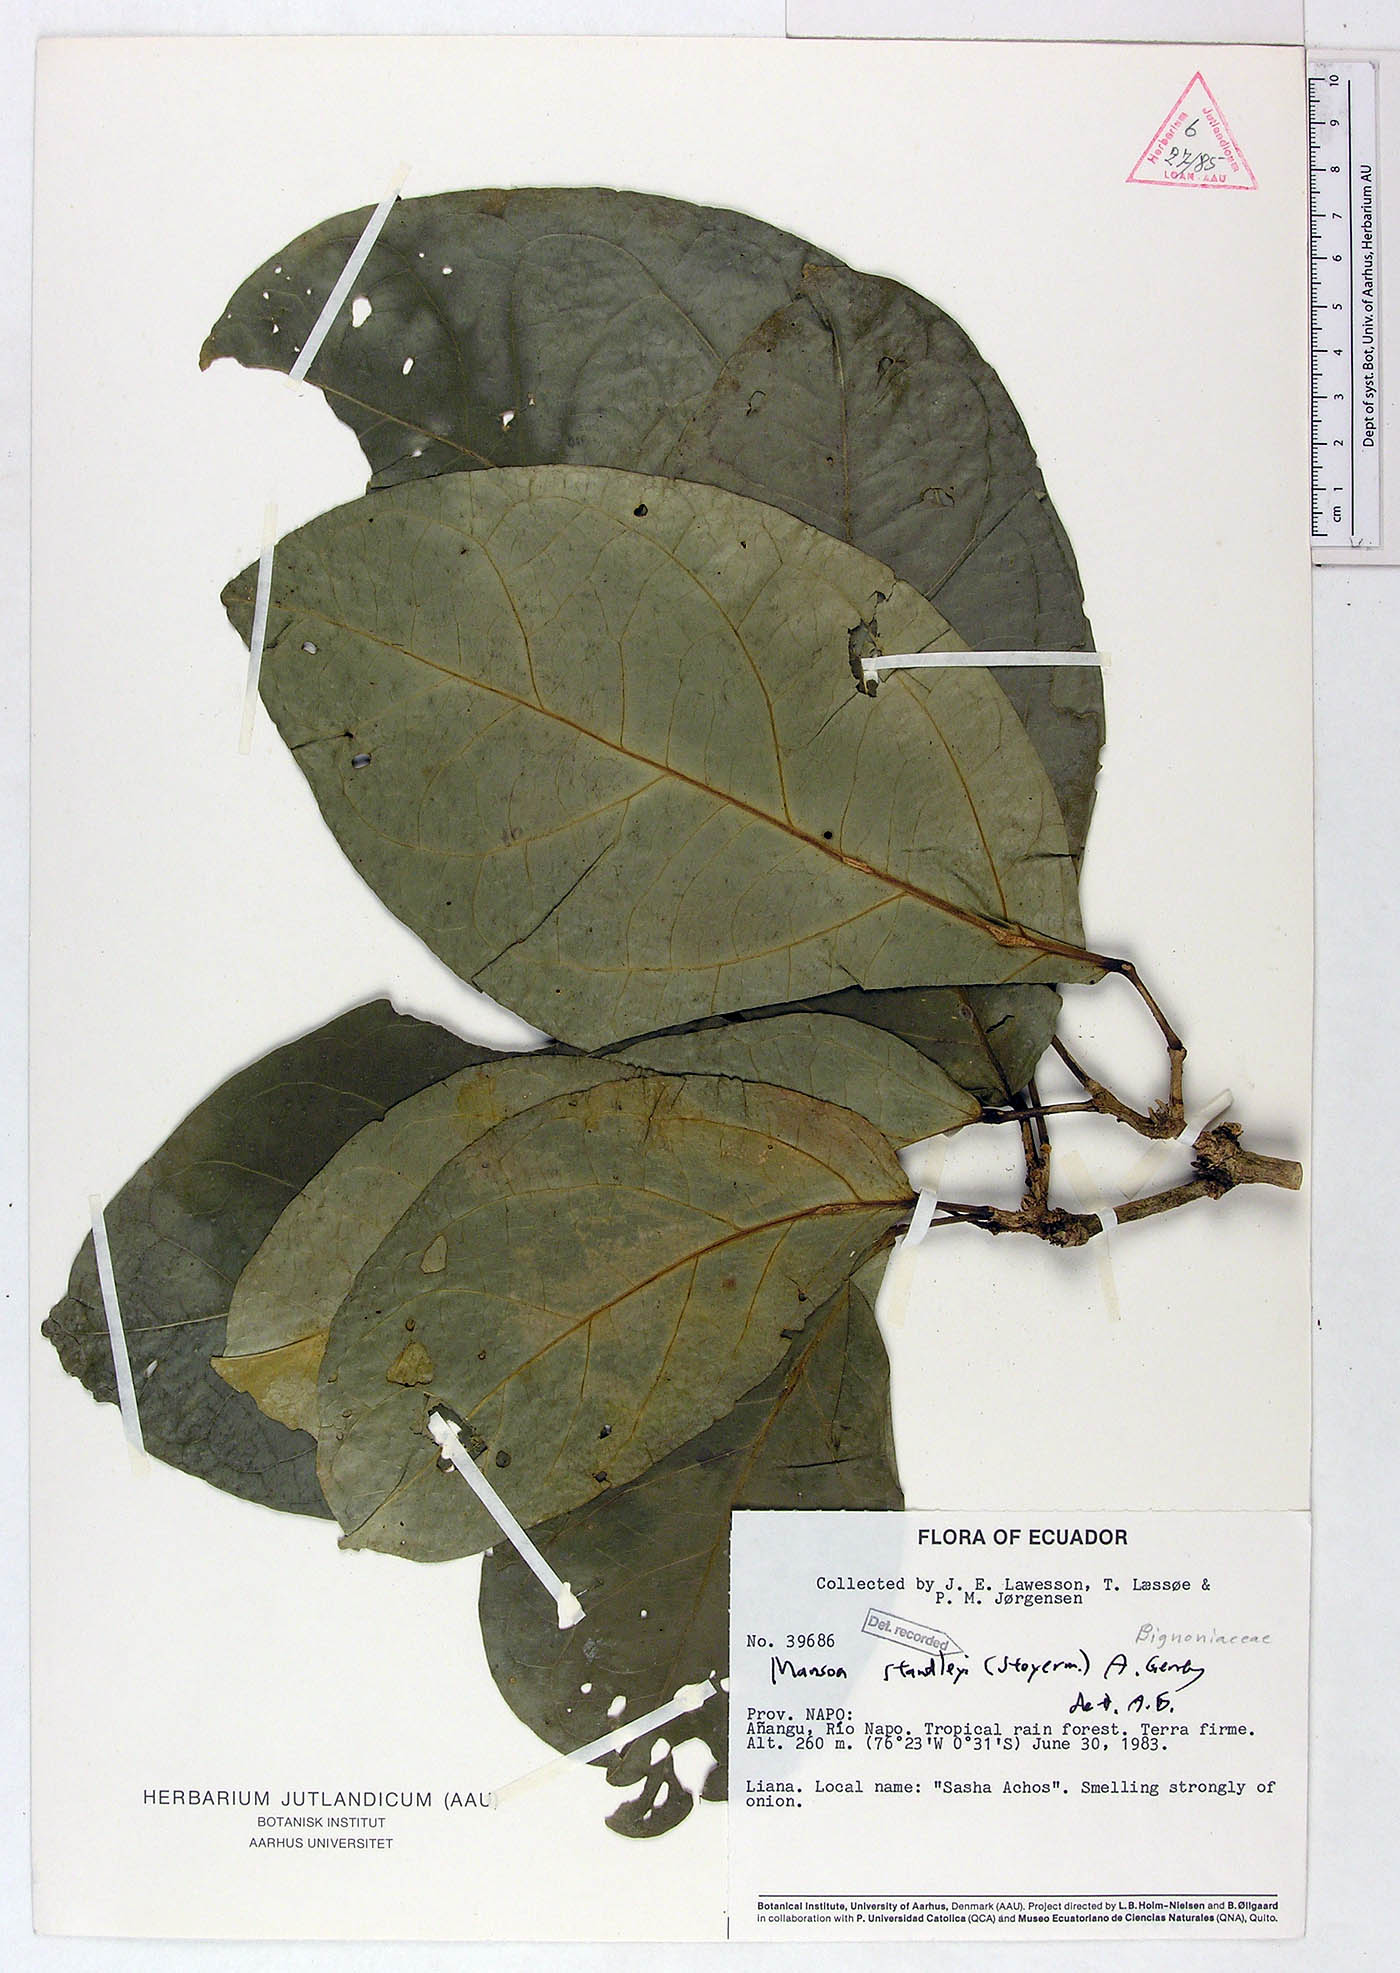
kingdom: Plantae
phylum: Tracheophyta
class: Magnoliopsida
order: Lamiales
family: Bignoniaceae
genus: Mansoa
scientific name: Mansoa standleyi
